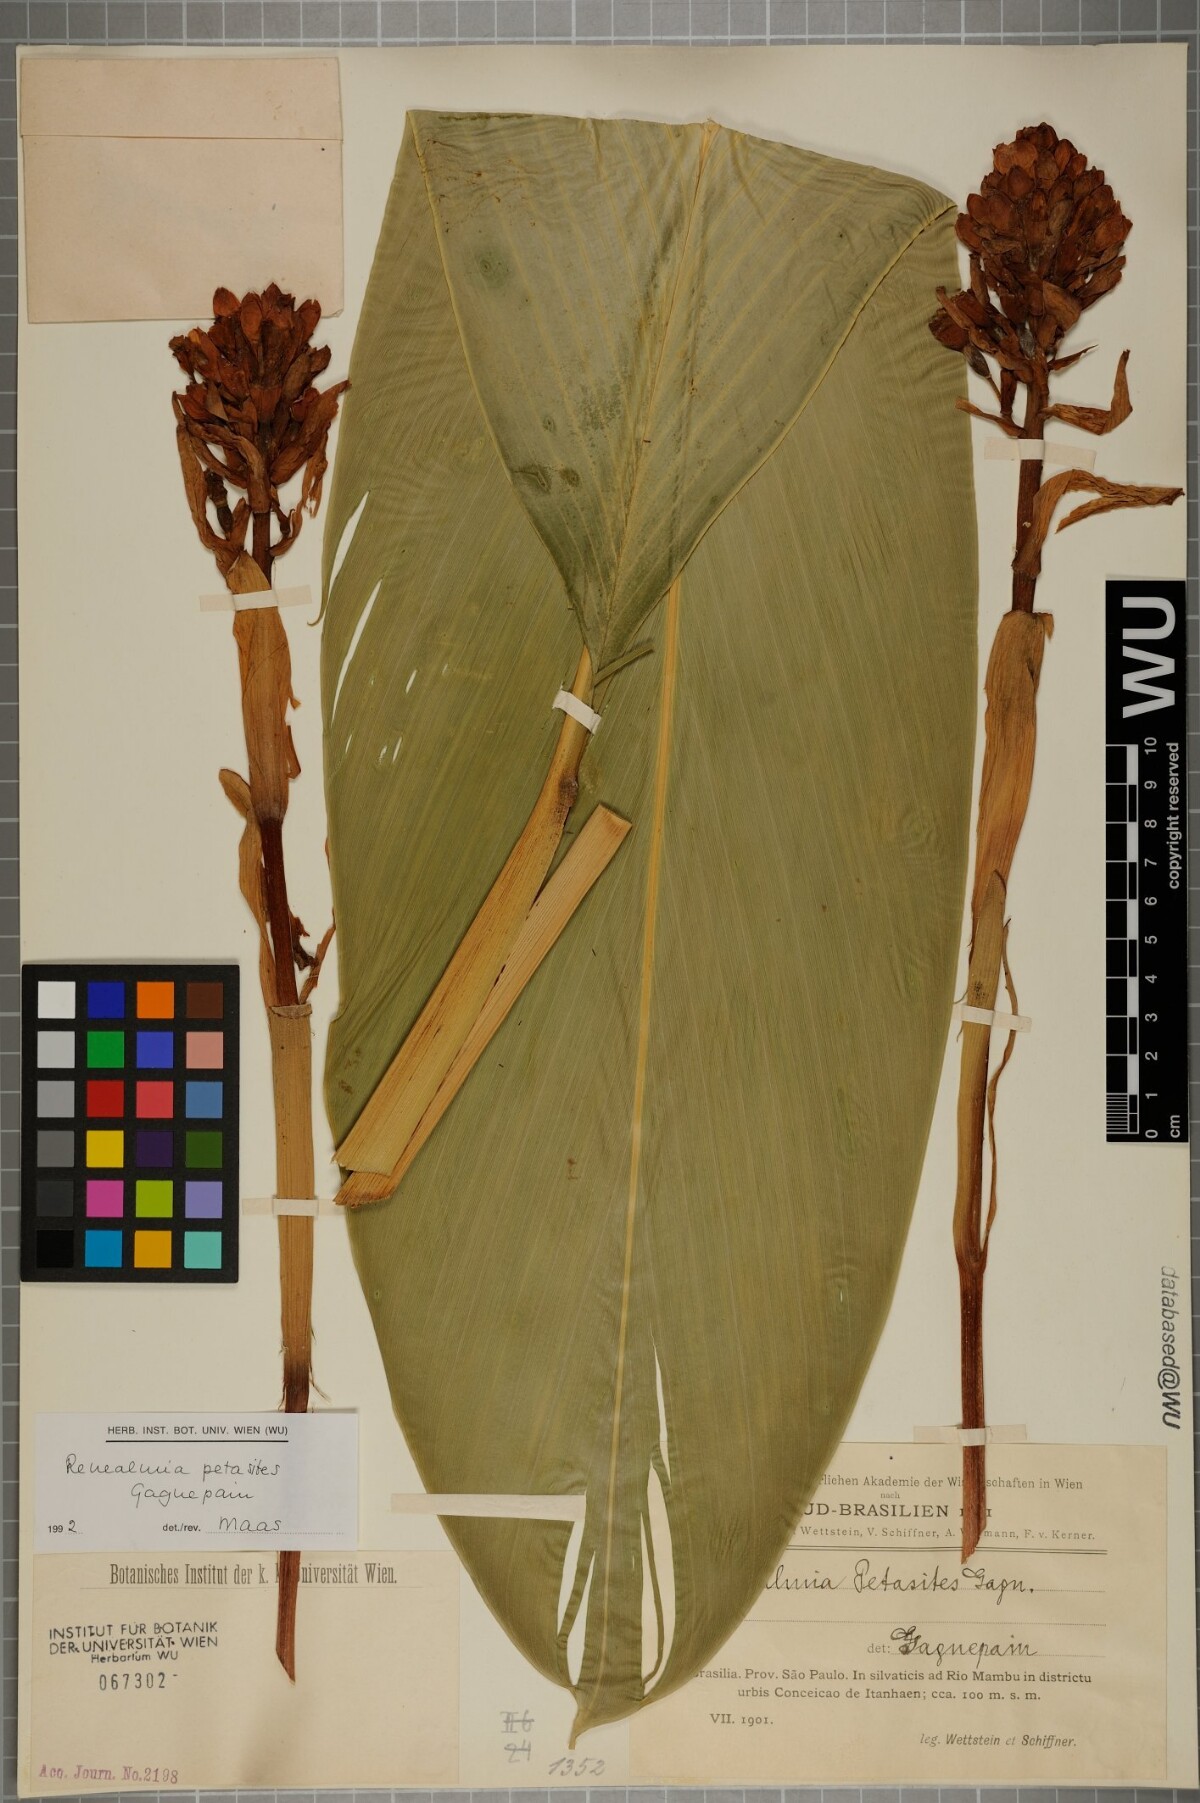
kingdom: Plantae
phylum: Tracheophyta
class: Liliopsida
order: Zingiberales
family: Zingiberaceae
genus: Renealmia
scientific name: Renealmia chrysotricha
